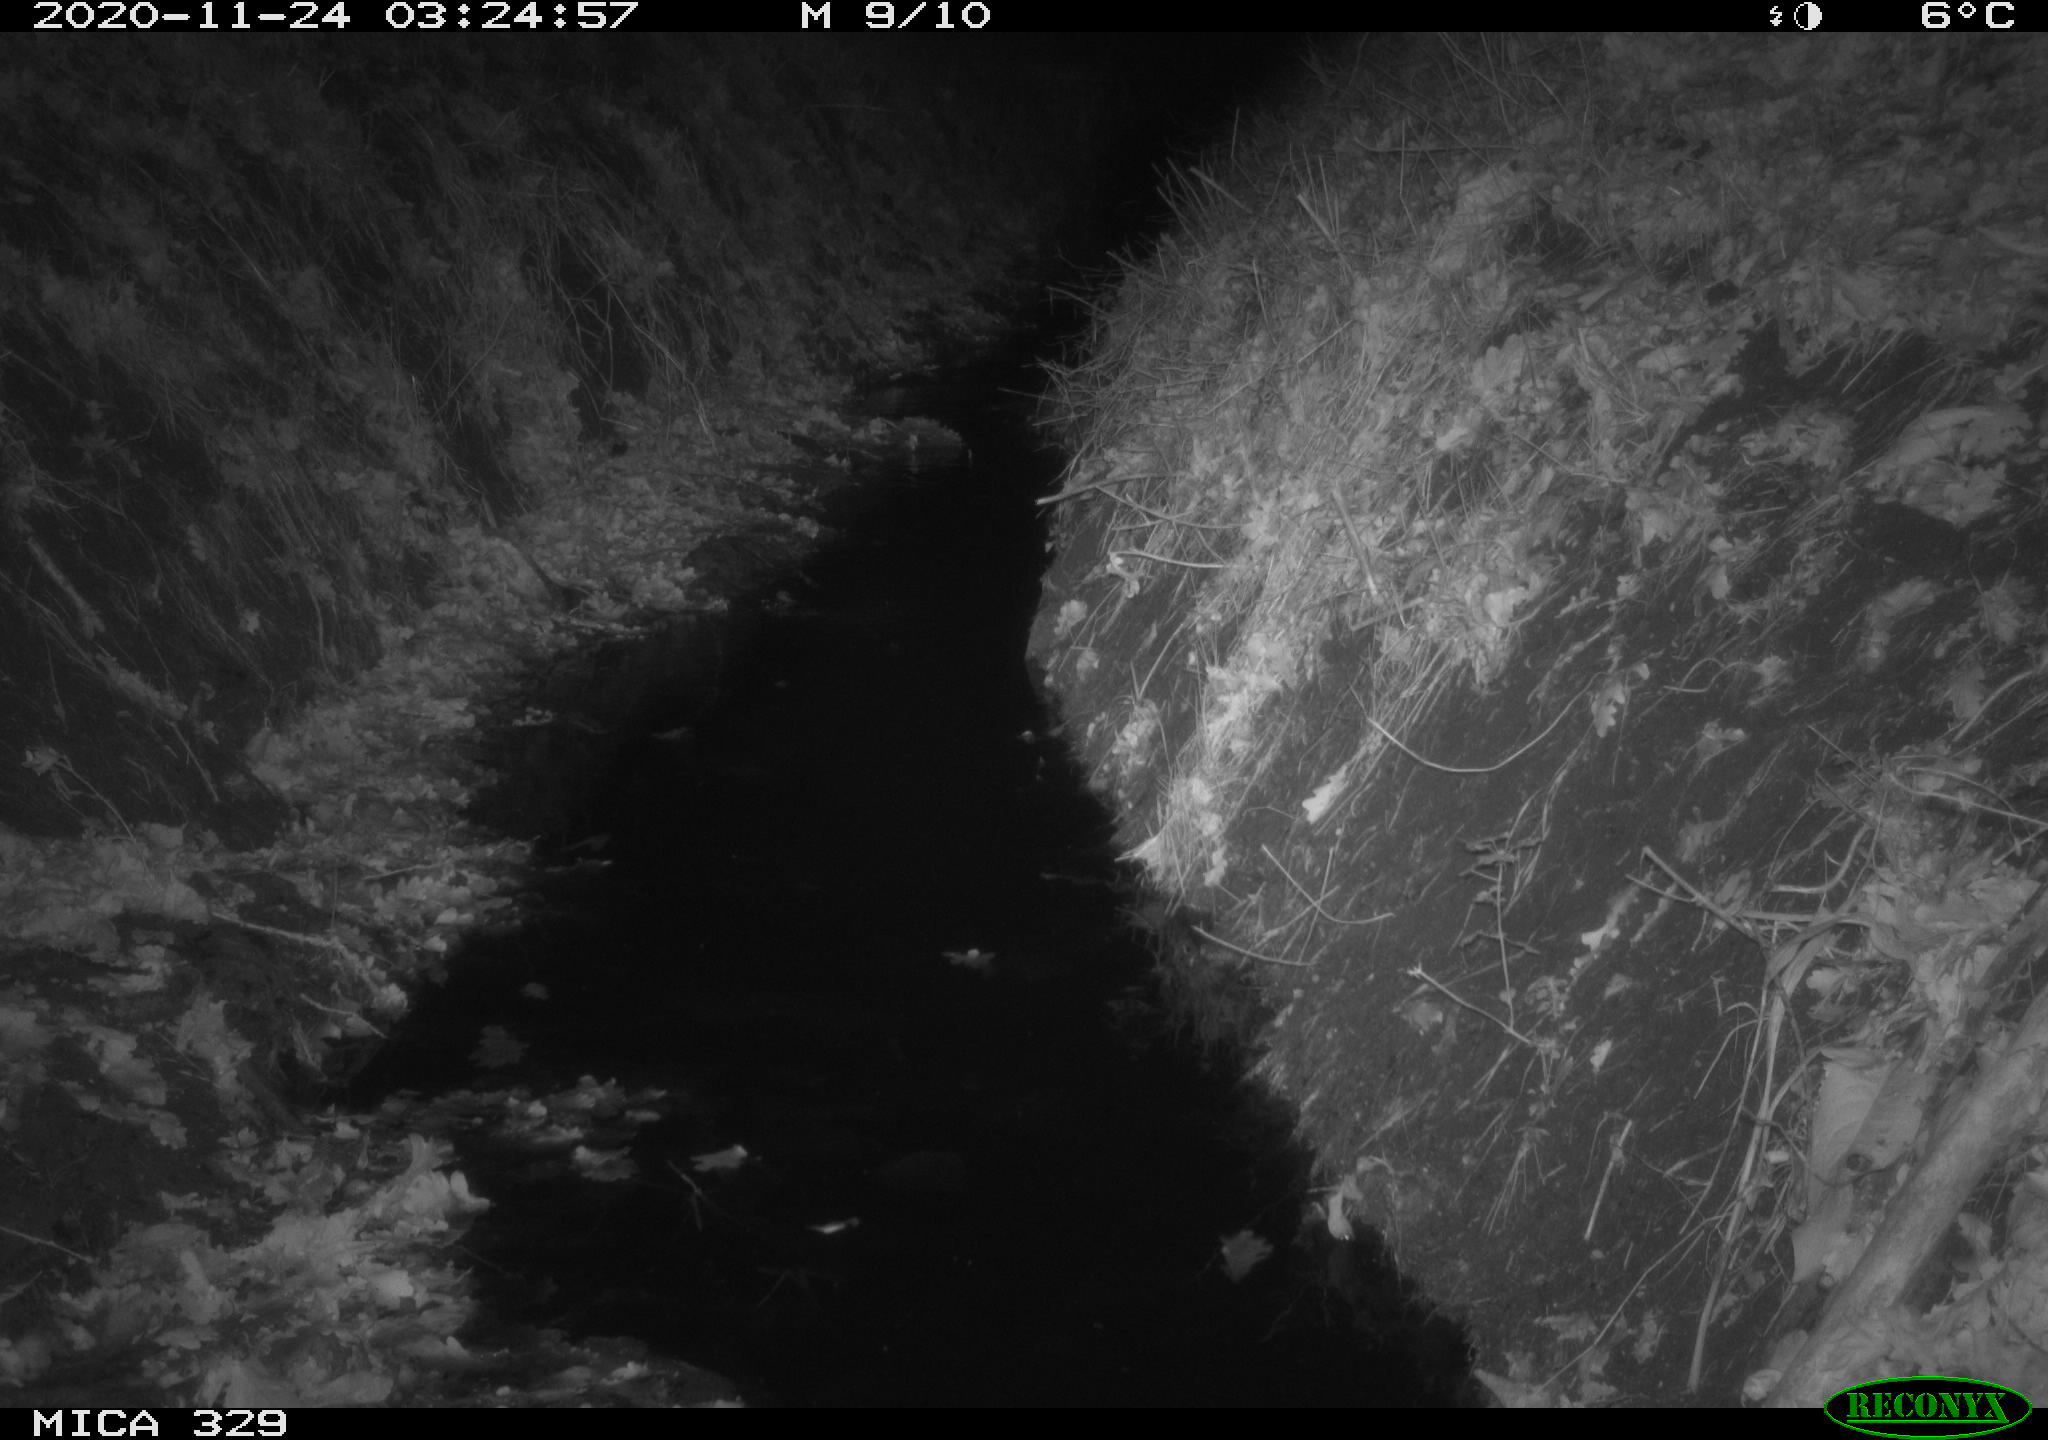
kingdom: Animalia
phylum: Chordata
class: Mammalia
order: Rodentia
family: Muridae
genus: Rattus
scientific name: Rattus norvegicus
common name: Brown rat
